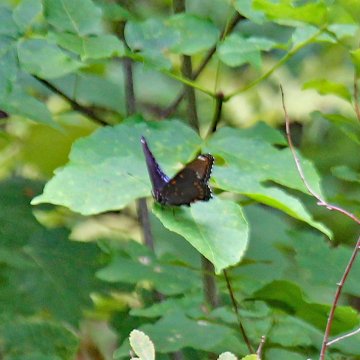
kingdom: Animalia
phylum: Arthropoda
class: Insecta
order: Lepidoptera
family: Nymphalidae
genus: Limenitis
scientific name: Limenitis arthemis
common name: Red-spotted Admiral
